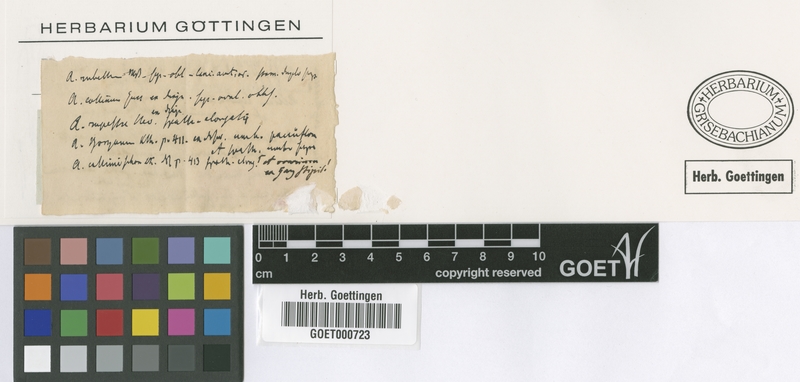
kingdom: Plantae
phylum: Tracheophyta
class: Liliopsida
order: Asparagales
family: Amaryllidaceae
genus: Allium
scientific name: Allium erythraeum
